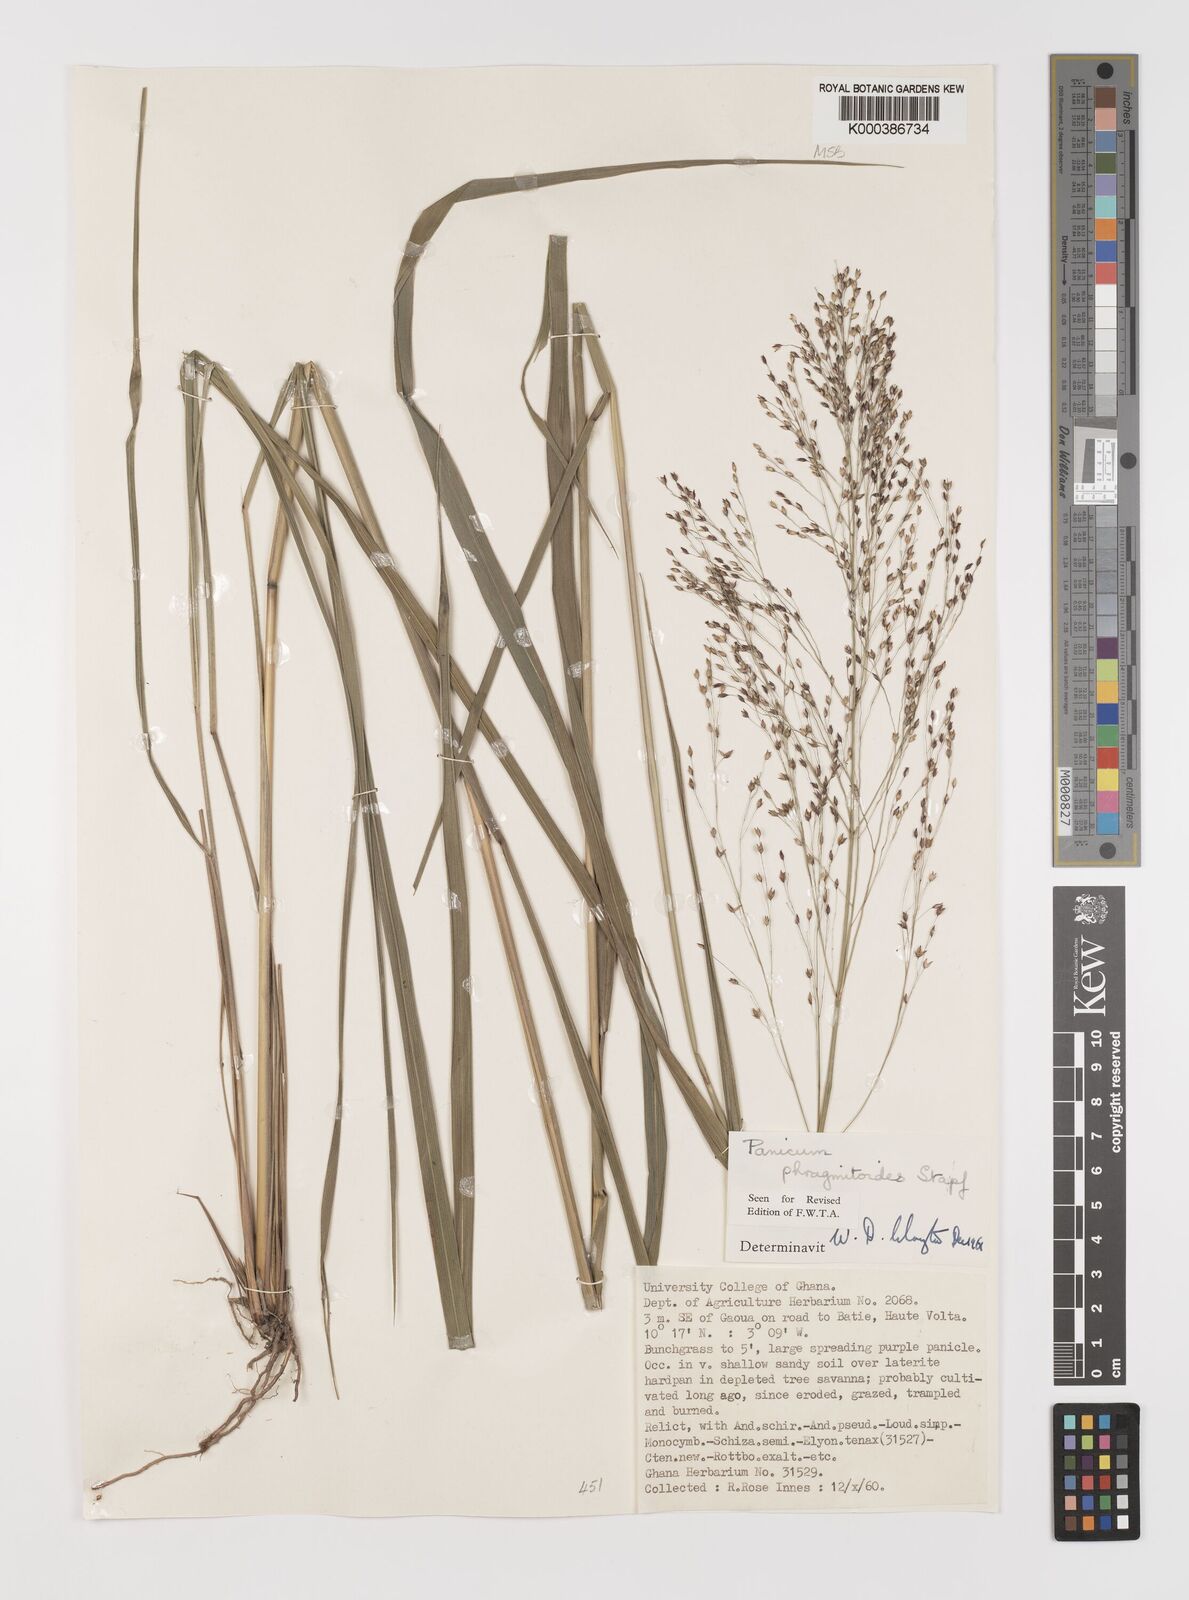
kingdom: Plantae
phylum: Tracheophyta
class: Liliopsida
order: Poales
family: Poaceae
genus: Panicum
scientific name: Panicum phragmitoides
